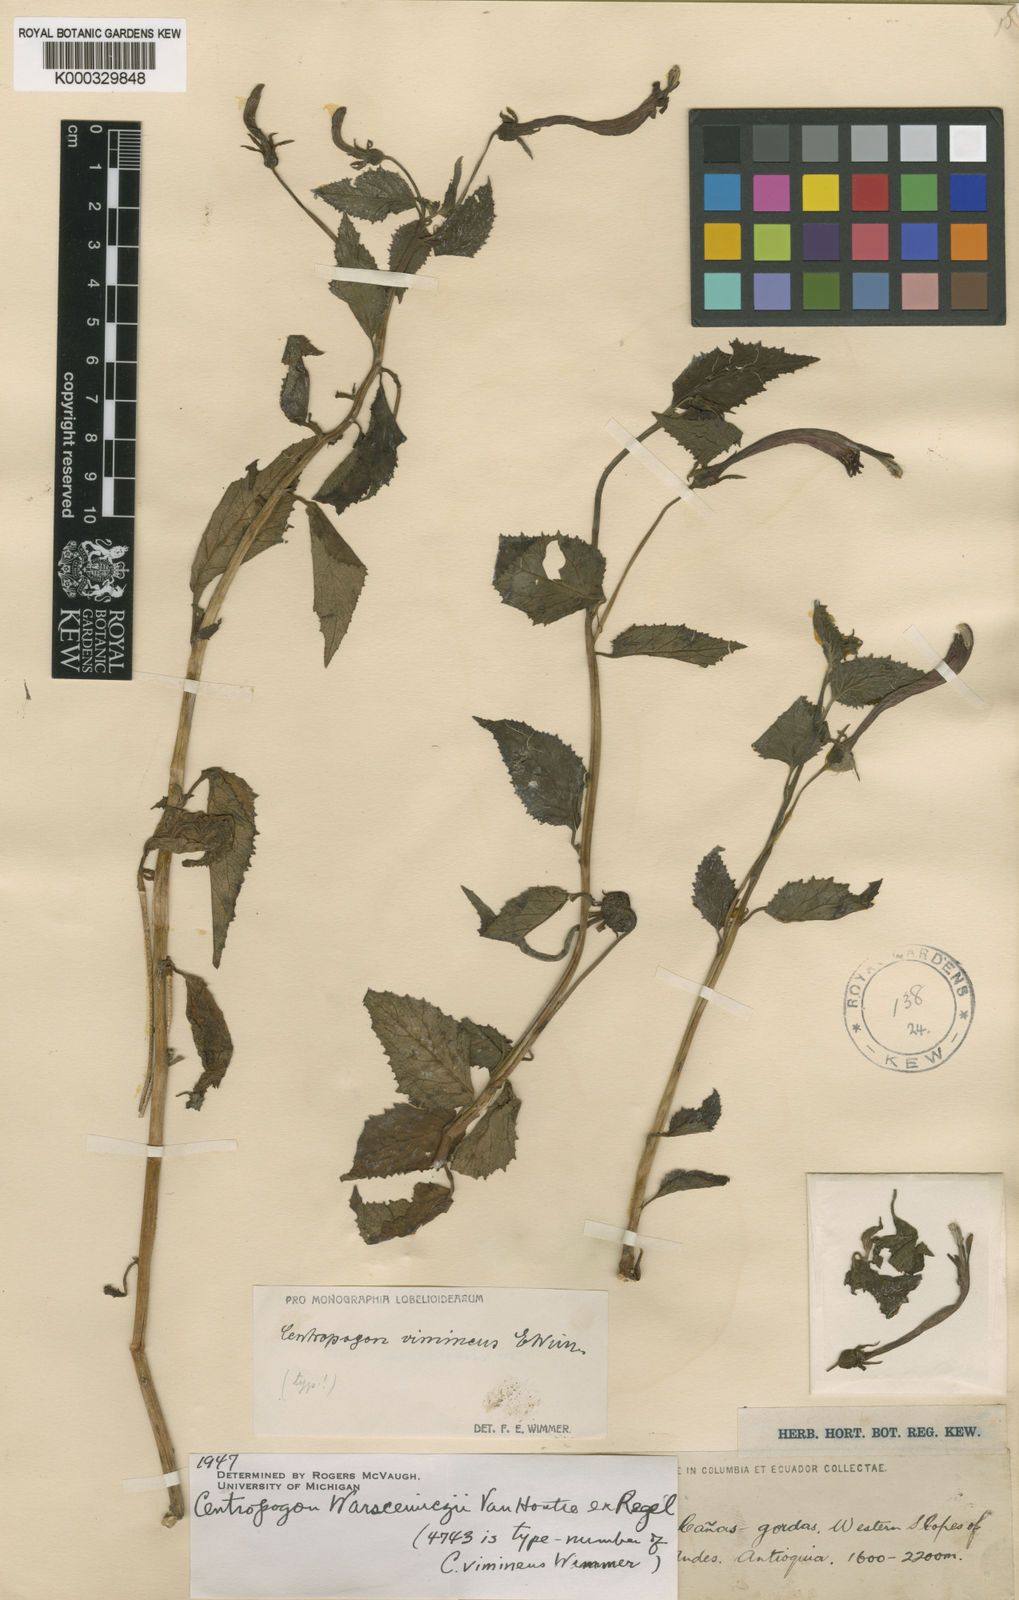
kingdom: Plantae
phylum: Tracheophyta
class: Magnoliopsida
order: Asterales
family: Campanulaceae
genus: Centropogon
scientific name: Centropogon warscewiczii
